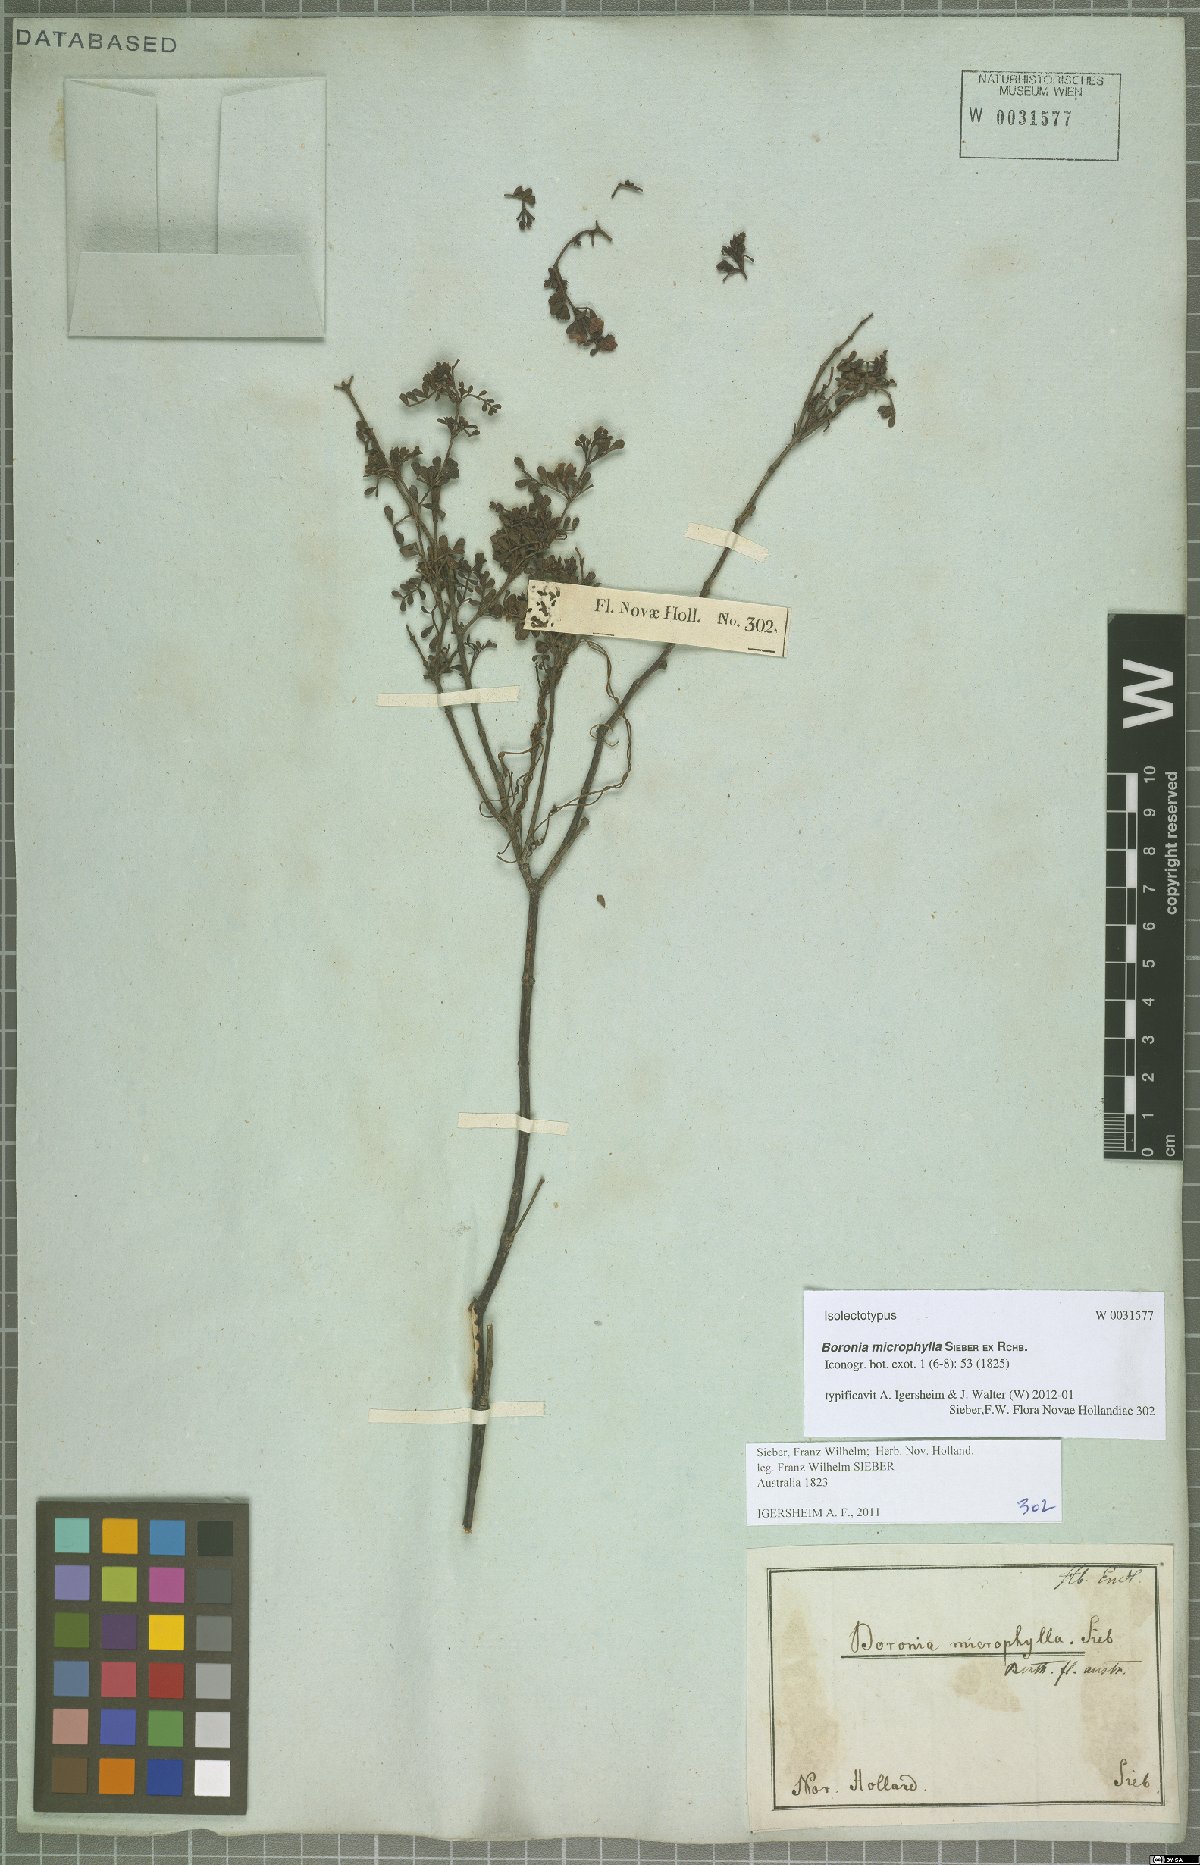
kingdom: Plantae
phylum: Tracheophyta
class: Magnoliopsida
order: Sapindales
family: Rutaceae
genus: Boronia
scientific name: Boronia microphylla
